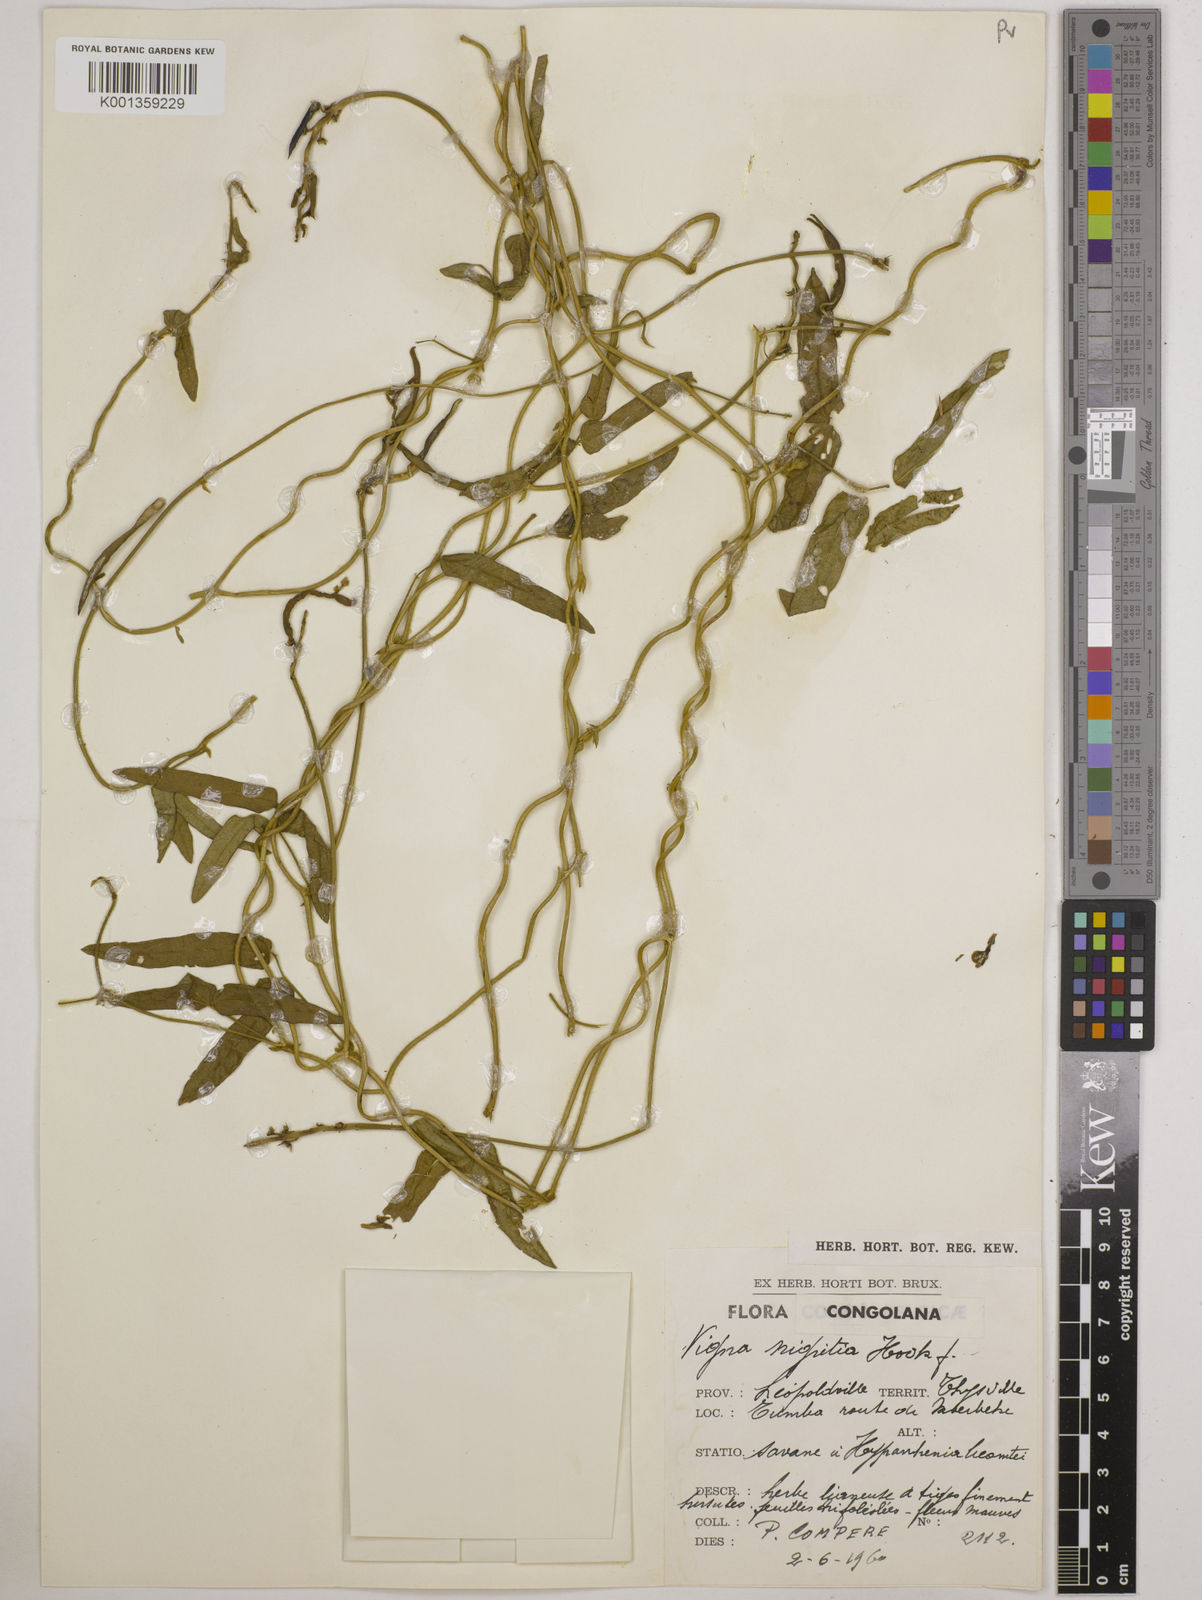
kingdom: Plantae
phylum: Tracheophyta
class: Magnoliopsida
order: Fabales
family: Fabaceae
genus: Vigna
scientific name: Vigna nigritia
